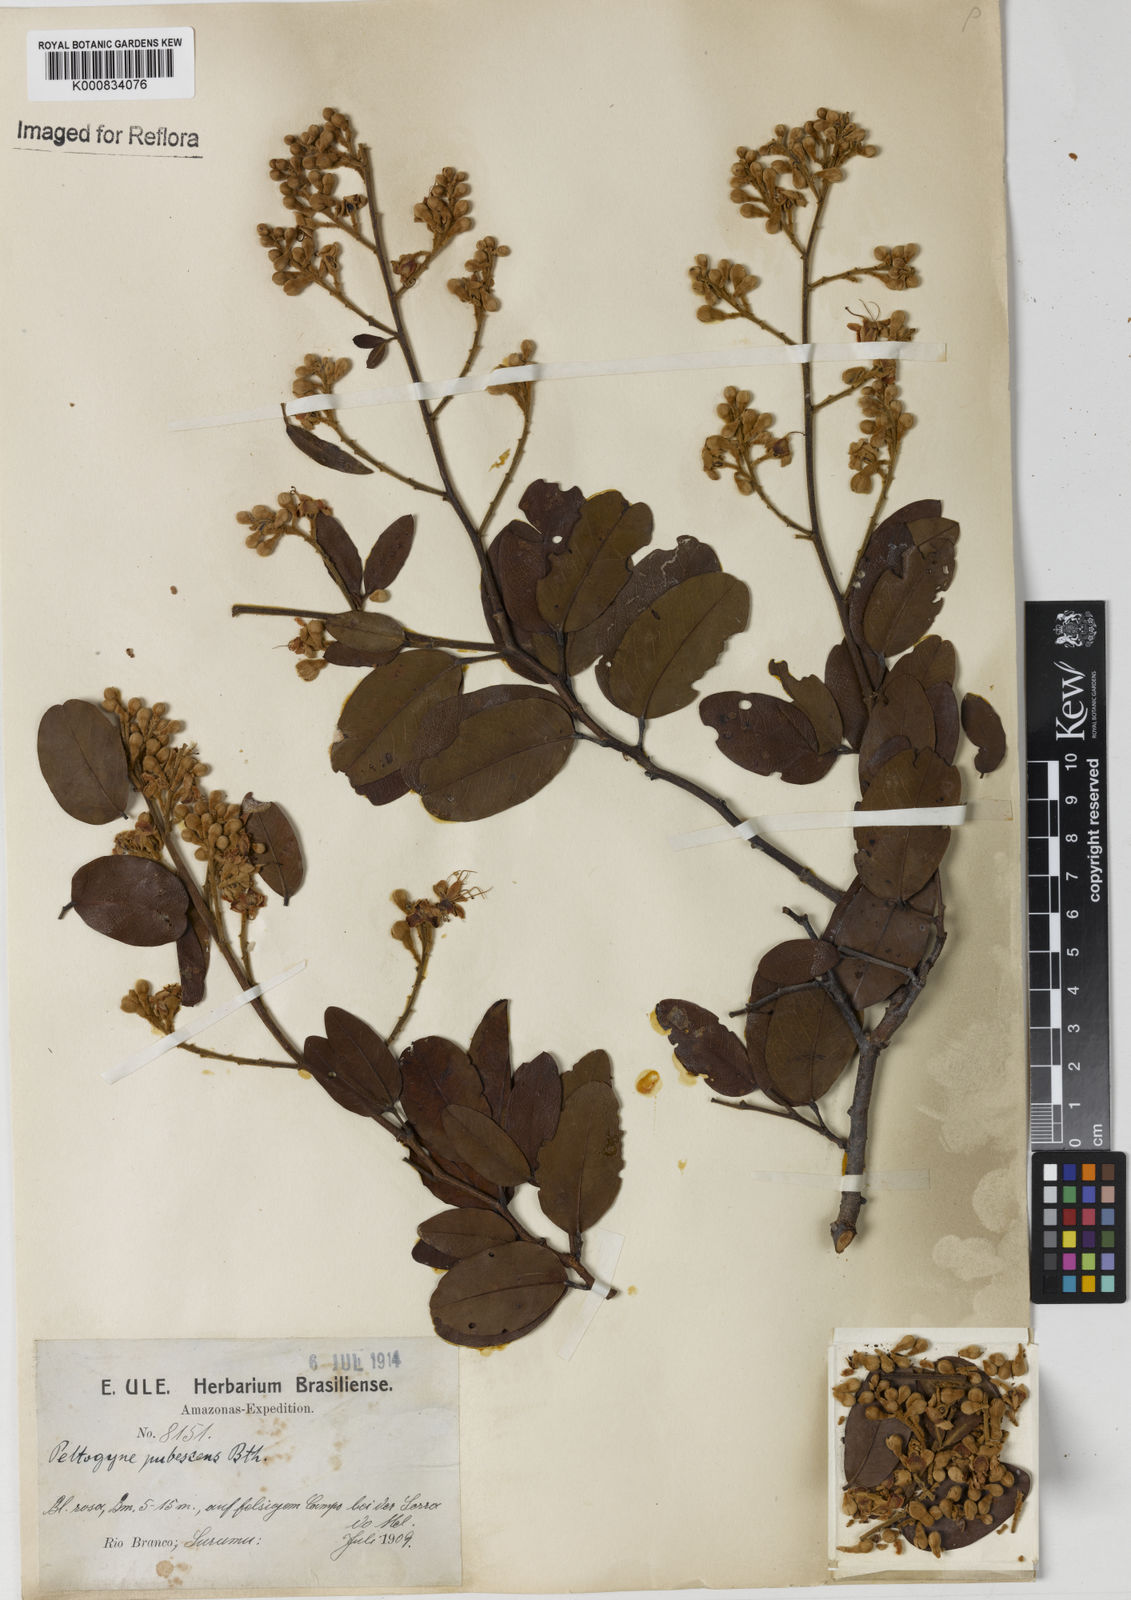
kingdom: Plantae
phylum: Tracheophyta
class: Magnoliopsida
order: Fabales
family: Fabaceae
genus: Peltogyne
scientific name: Peltogyne paniculata
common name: Purpleheart
